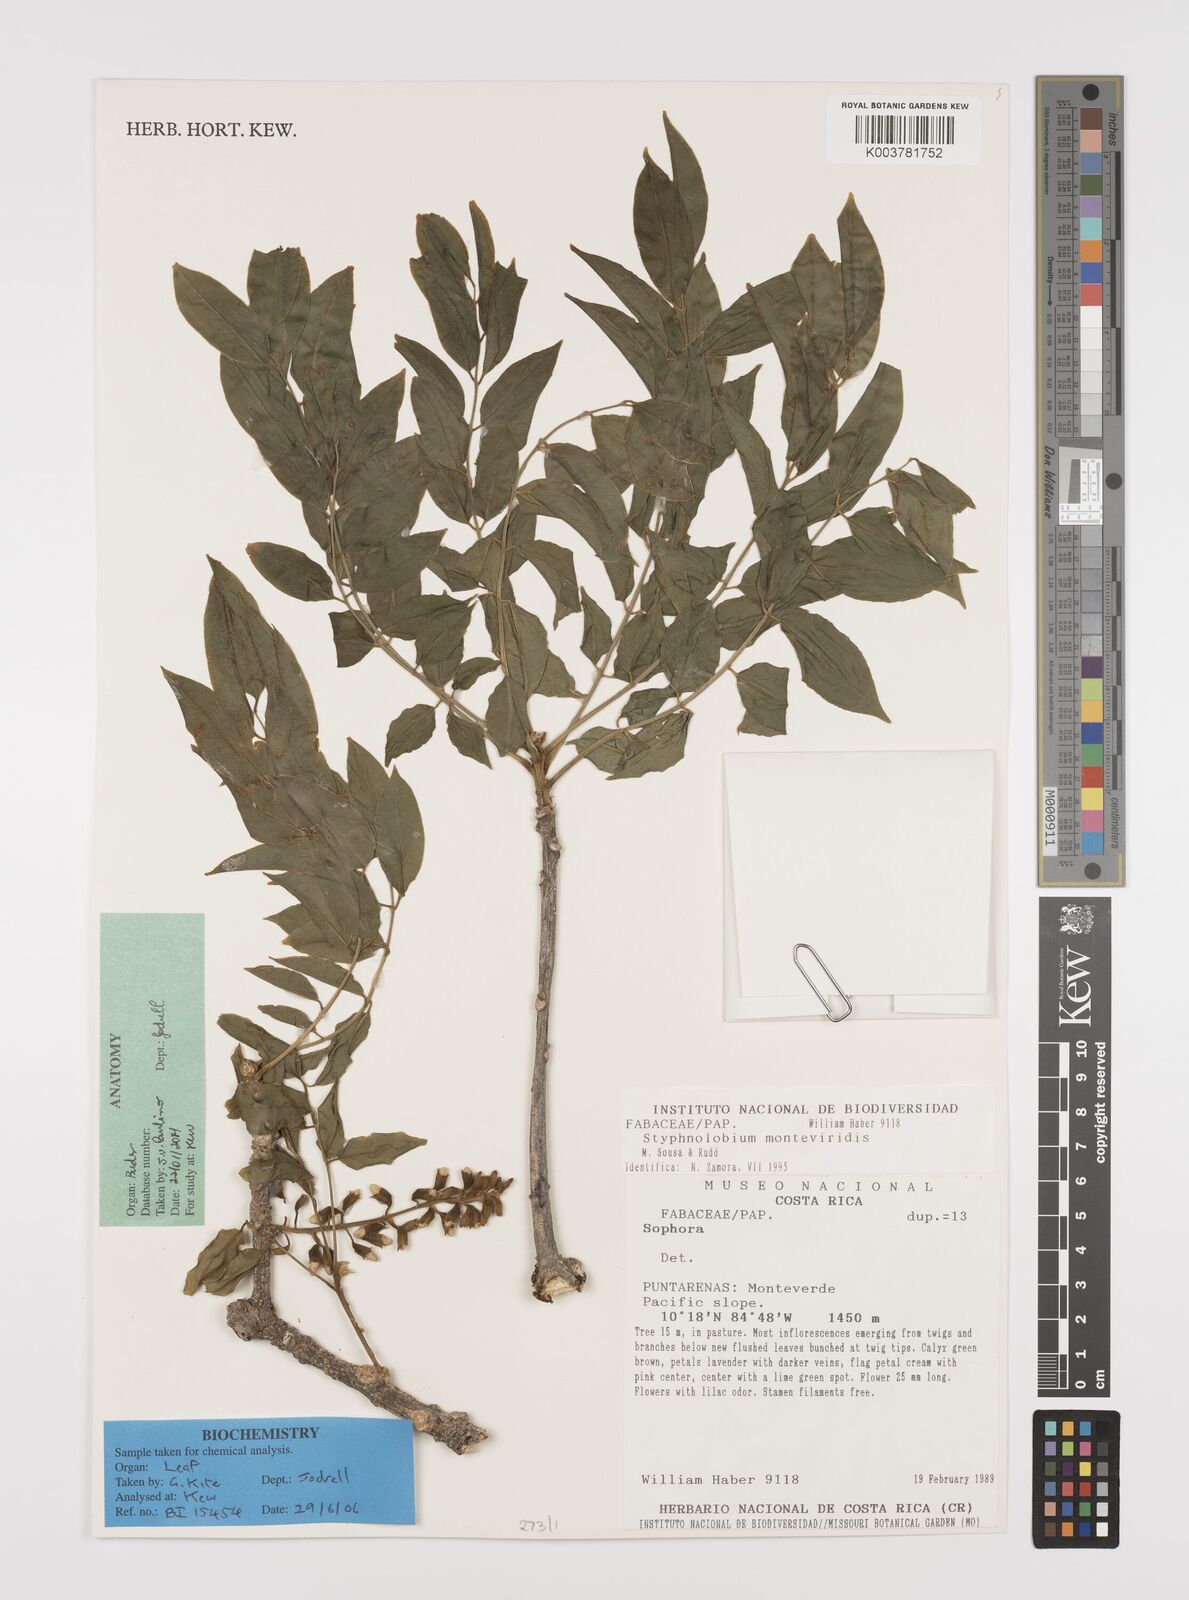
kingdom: Plantae
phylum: Tracheophyta
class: Magnoliopsida
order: Fabales
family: Fabaceae
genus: Styphnolobium
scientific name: Styphnolobium monteviridis
